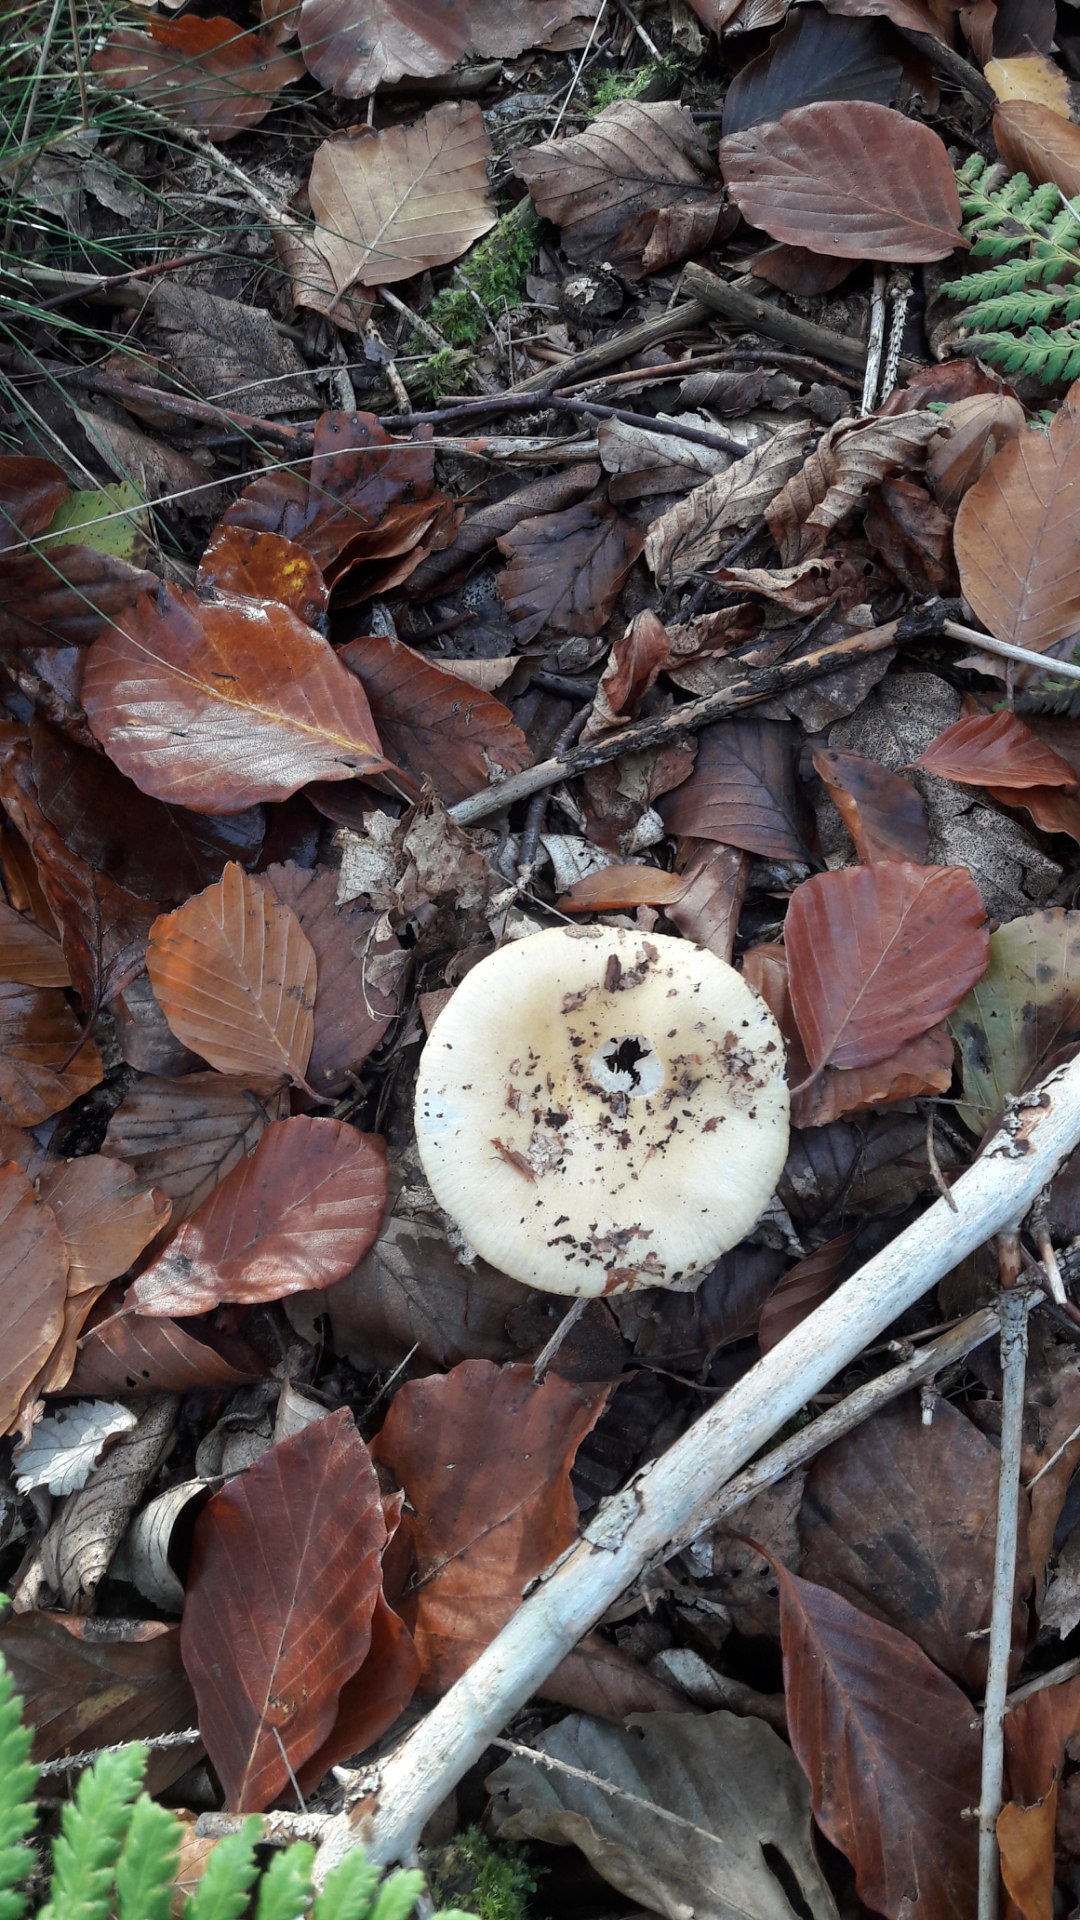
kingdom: Fungi
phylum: Basidiomycota
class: Agaricomycetes
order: Russulales
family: Russulaceae
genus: Russula
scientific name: Russula ochroleuca
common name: okkergul skørhat
